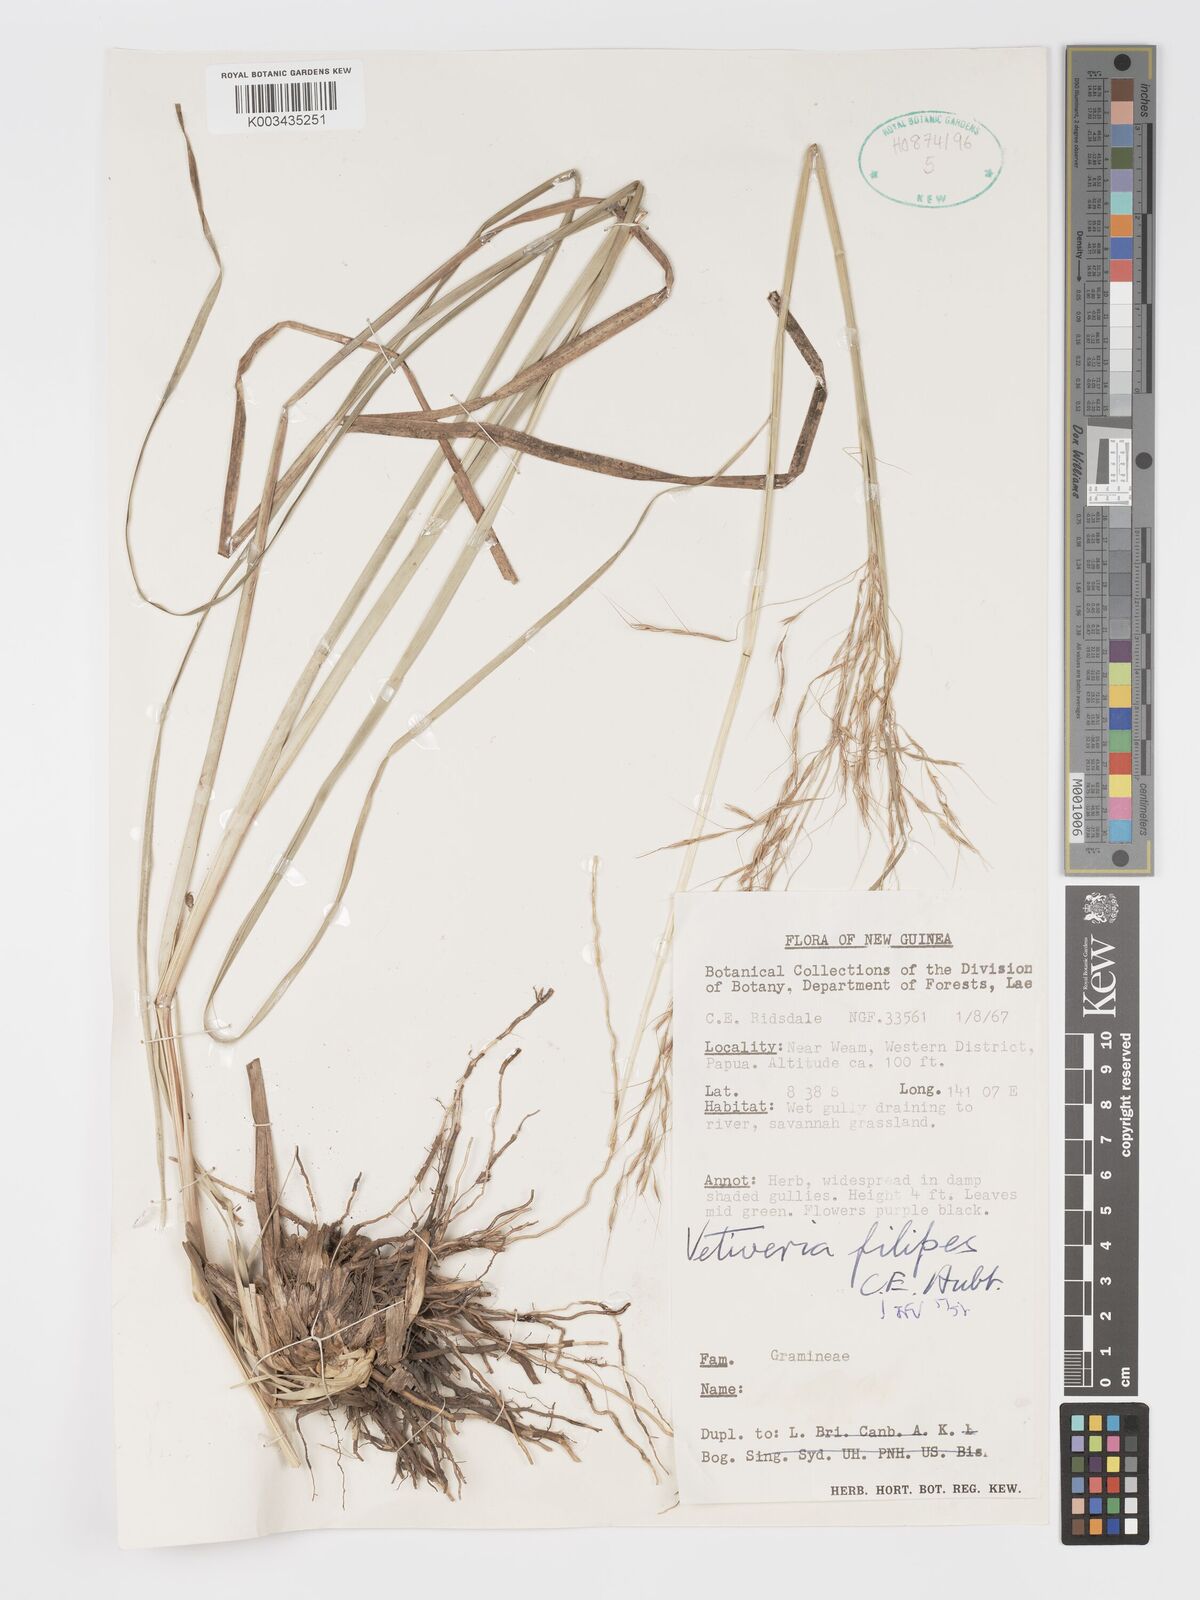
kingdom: Plantae
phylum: Tracheophyta
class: Liliopsida
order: Poales
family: Poaceae
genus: Chrysopogon
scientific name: Chrysopogon filipes
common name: Australian vetiver
